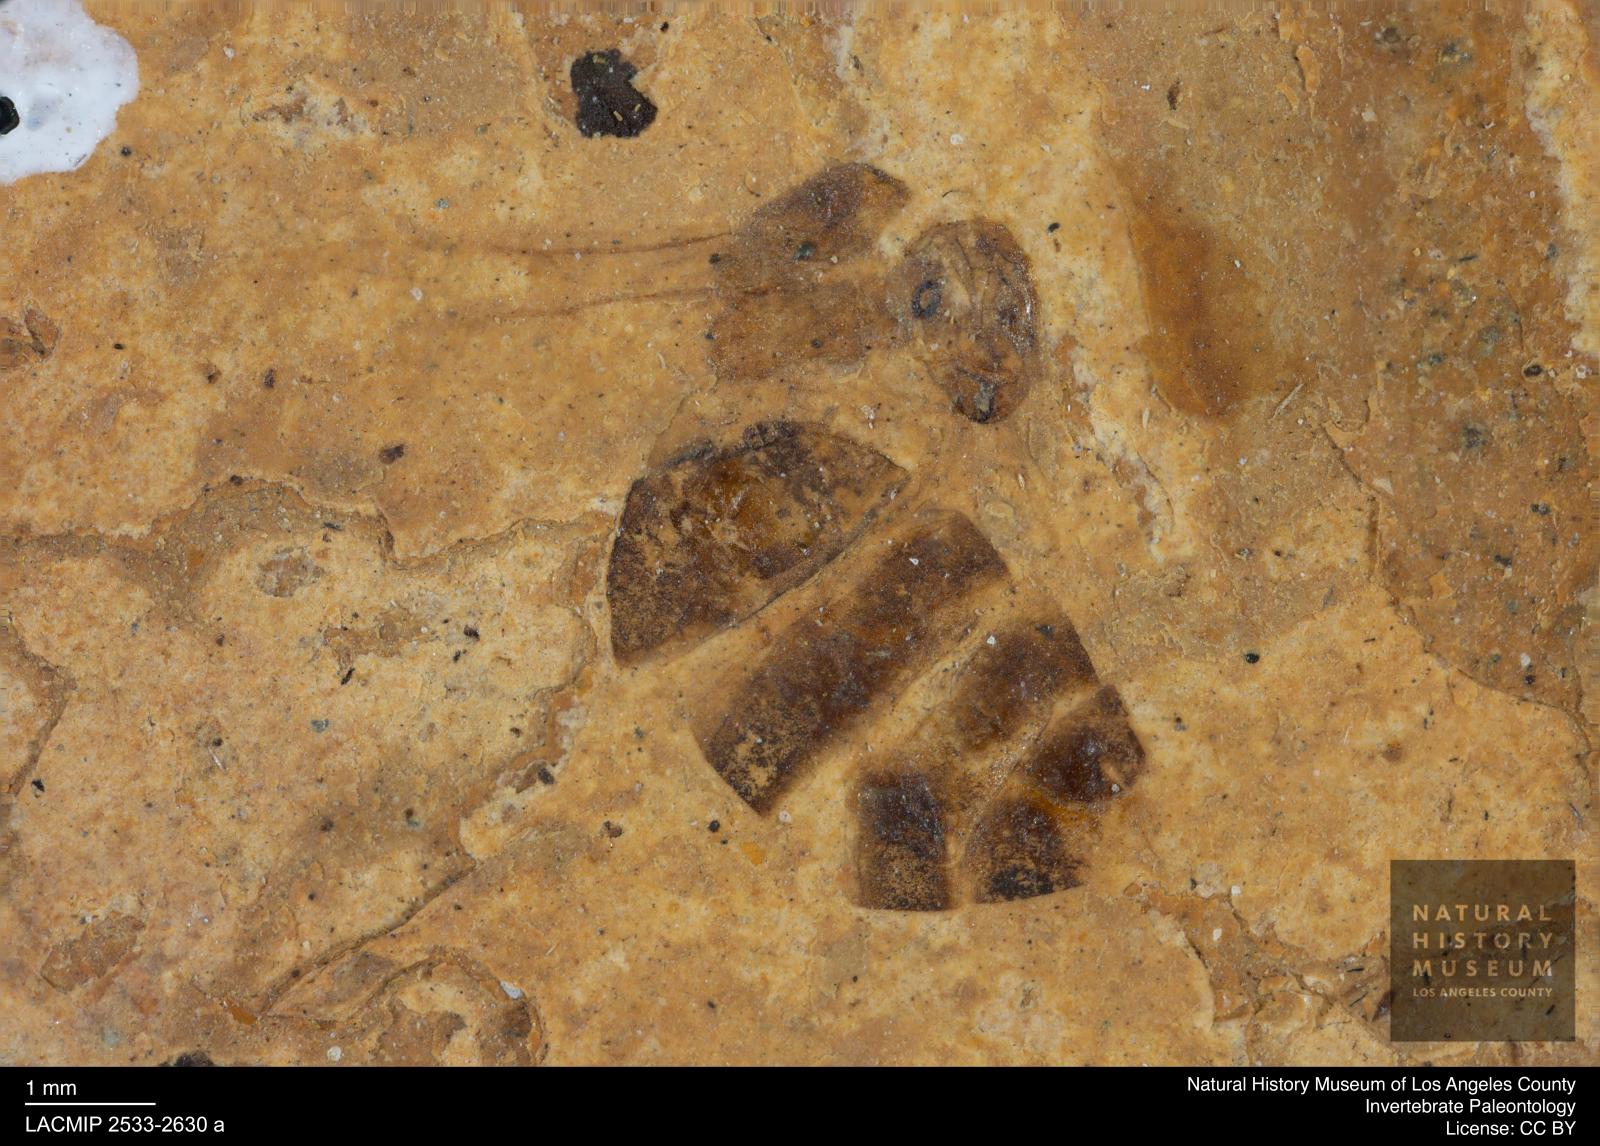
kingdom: Animalia
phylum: Arthropoda
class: Insecta
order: Hymenoptera
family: Formicidae
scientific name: Formicidae
